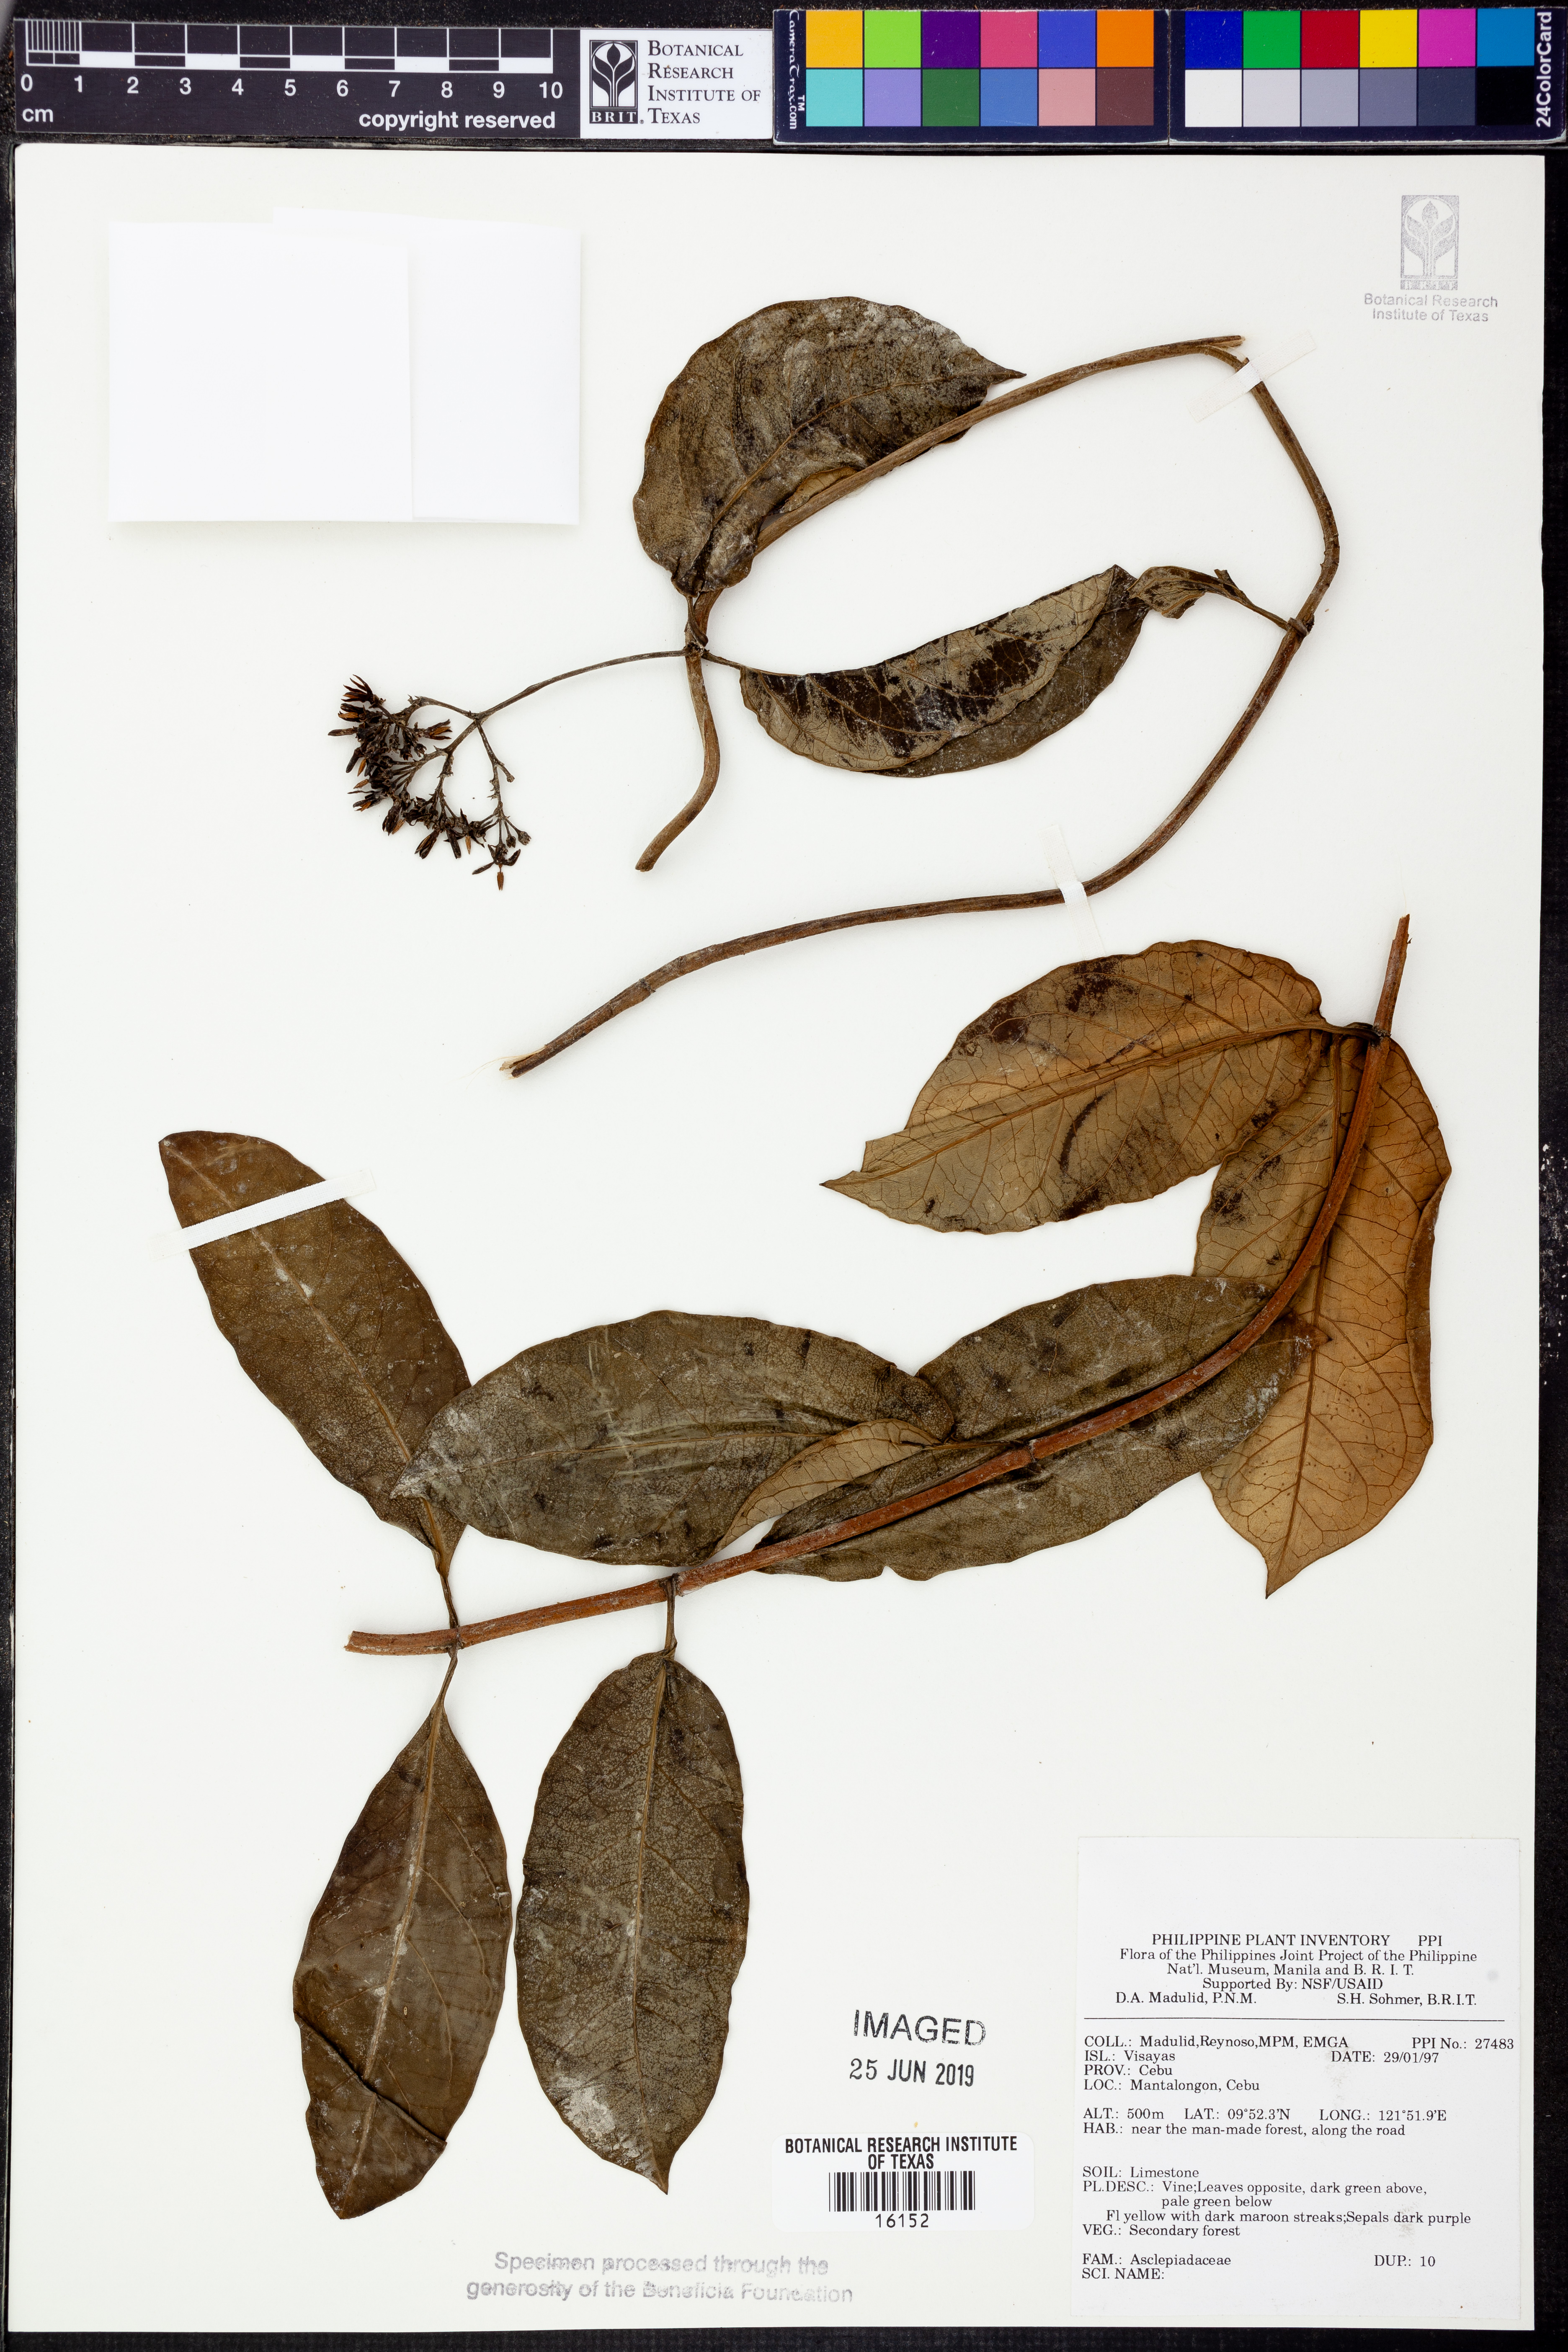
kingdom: Plantae
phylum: Tracheophyta
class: Magnoliopsida
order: Gentianales
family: Apocynaceae
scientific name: Apocynaceae
